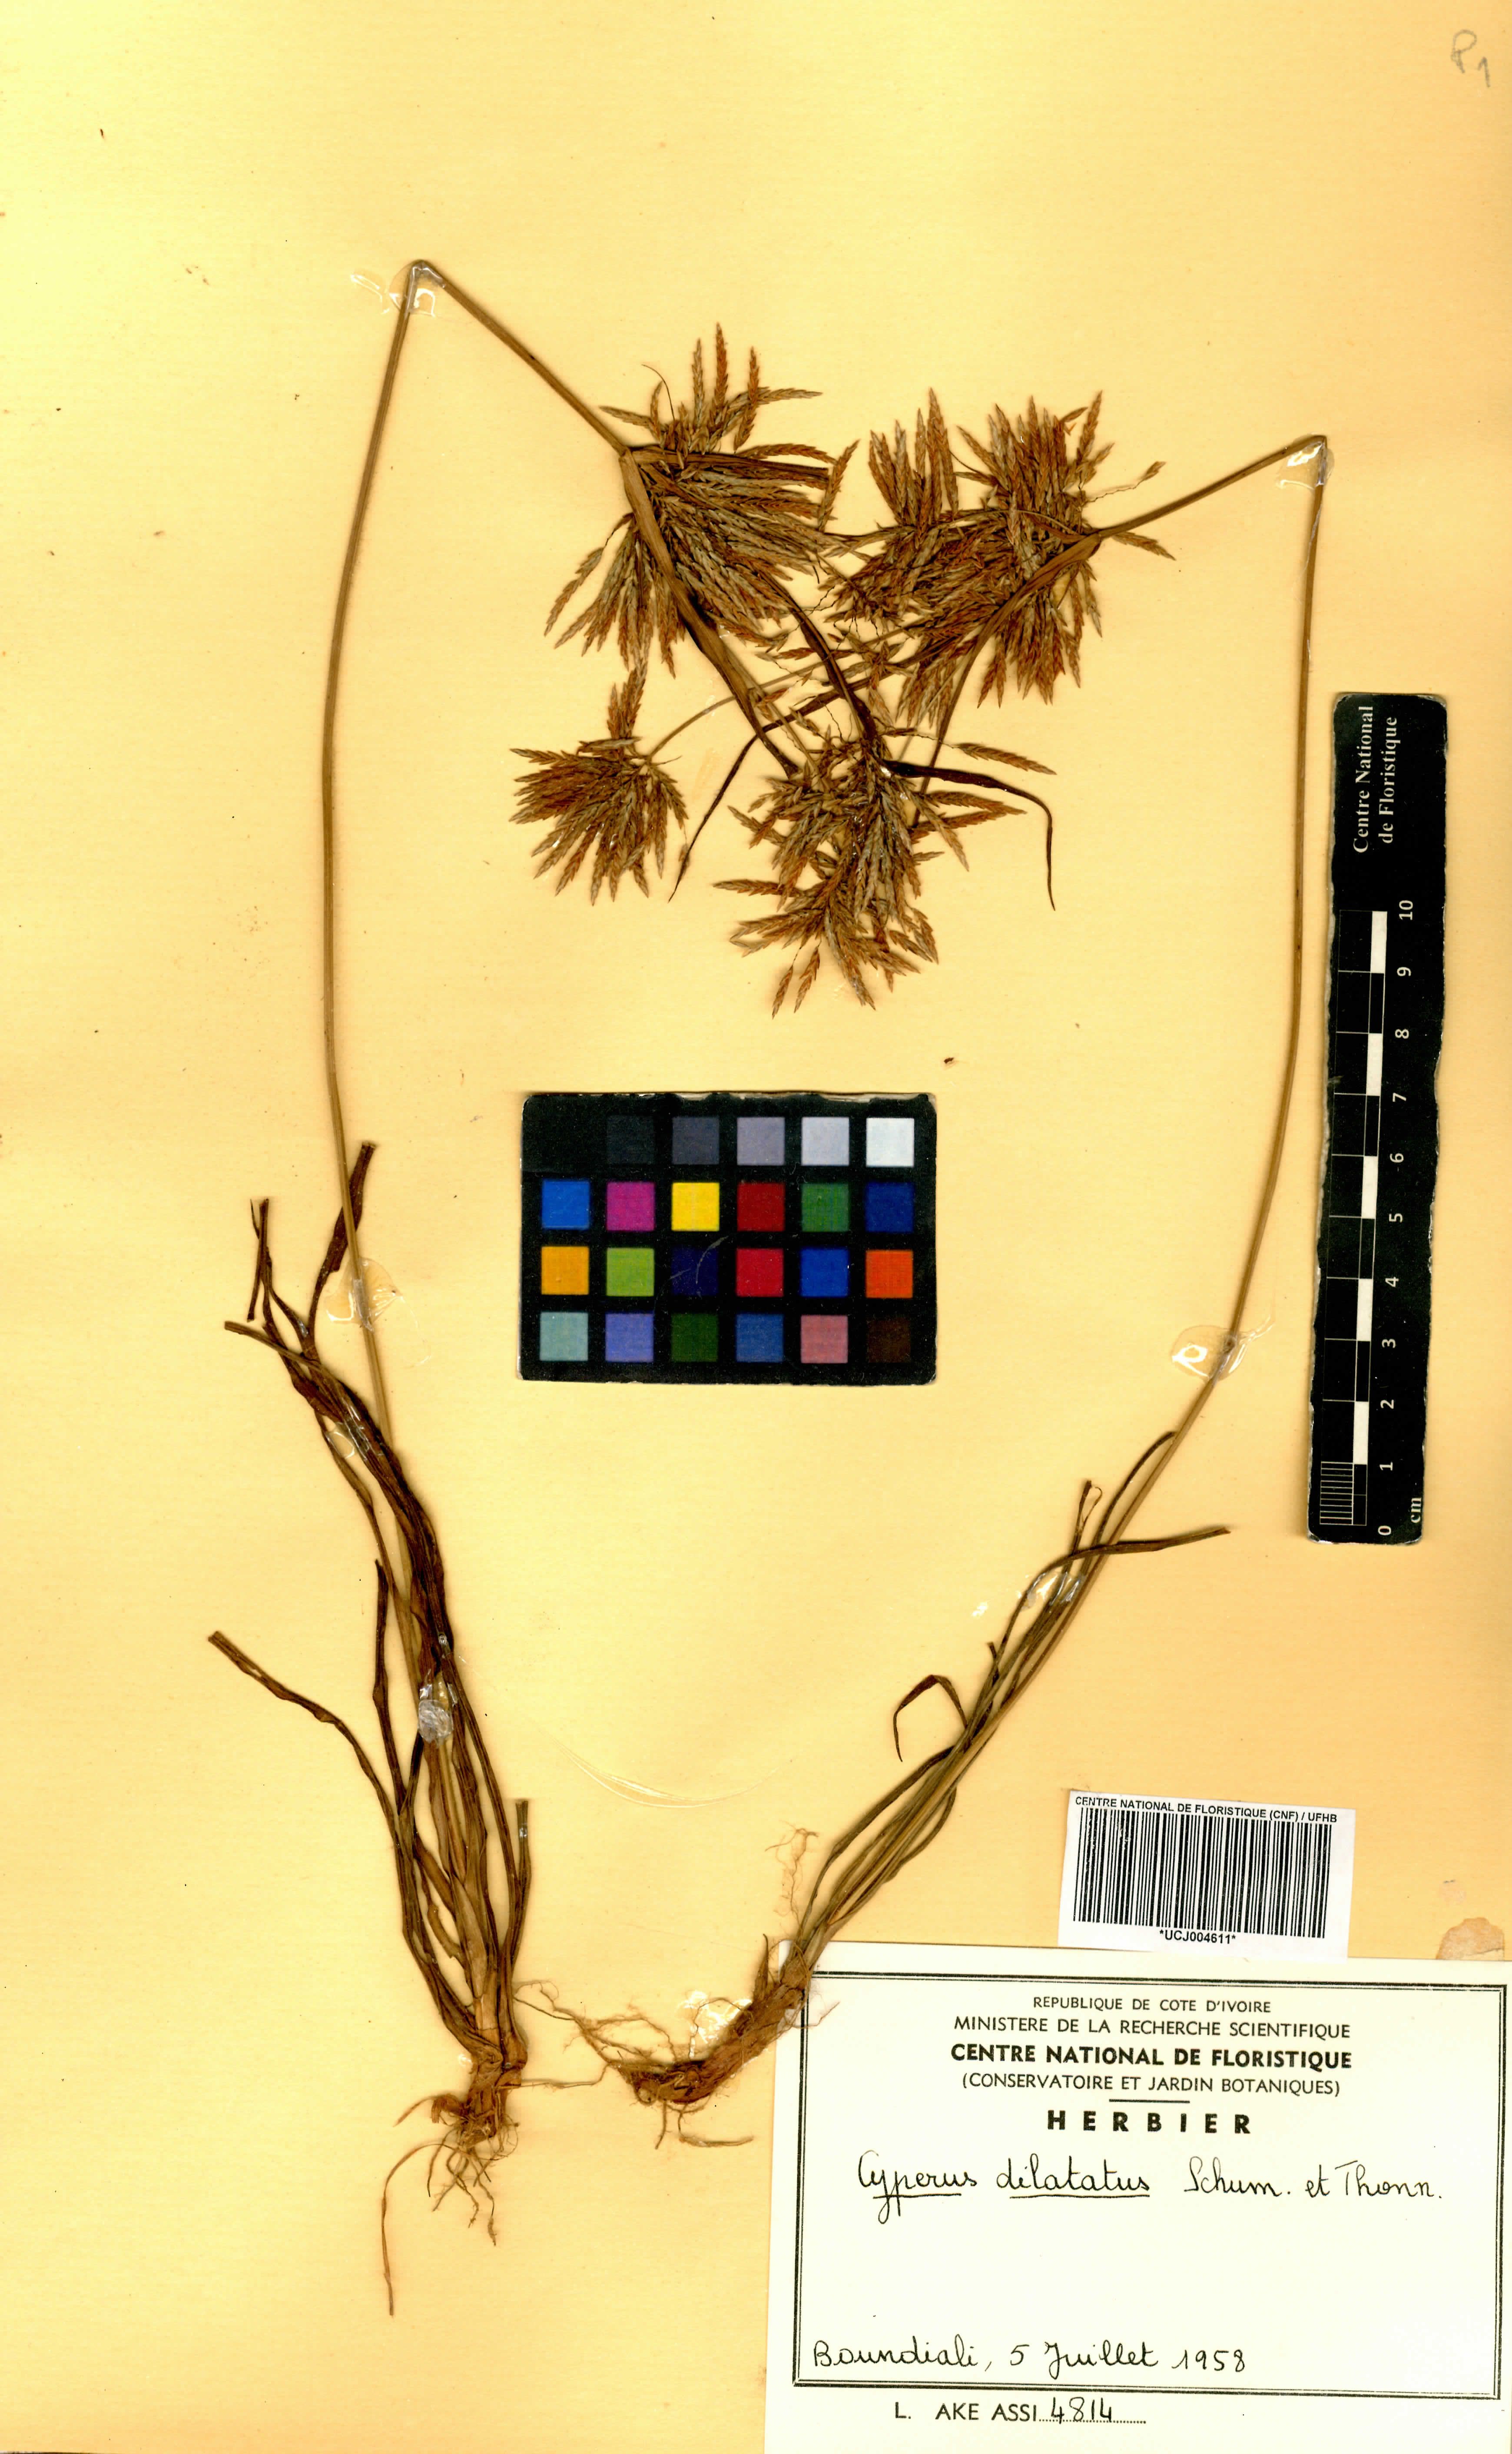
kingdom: Plantae
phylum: Tracheophyta
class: Liliopsida
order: Poales
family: Cyperaceae
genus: Cyperus
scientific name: Cyperus dilatatus
